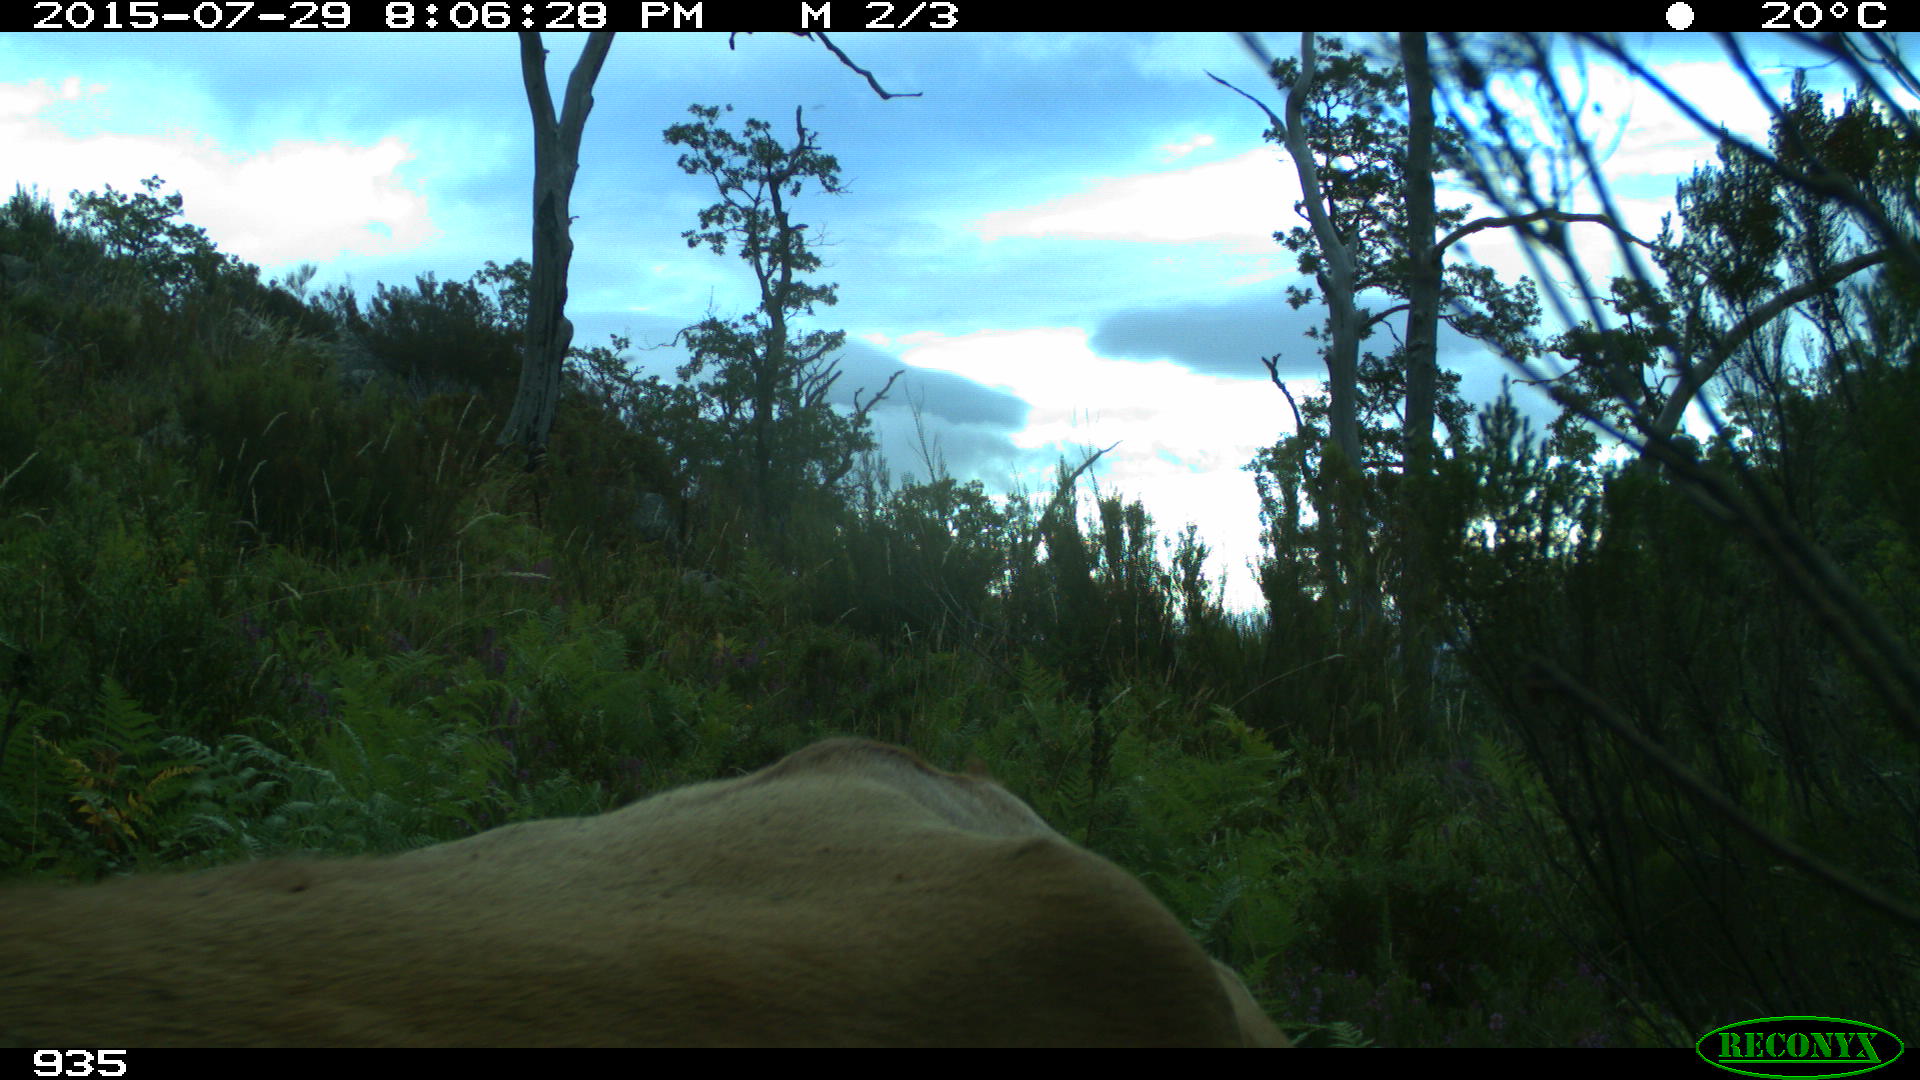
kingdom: Animalia
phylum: Chordata
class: Mammalia
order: Artiodactyla
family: Bovidae
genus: Bos
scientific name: Bos taurus
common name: Domesticated cattle
